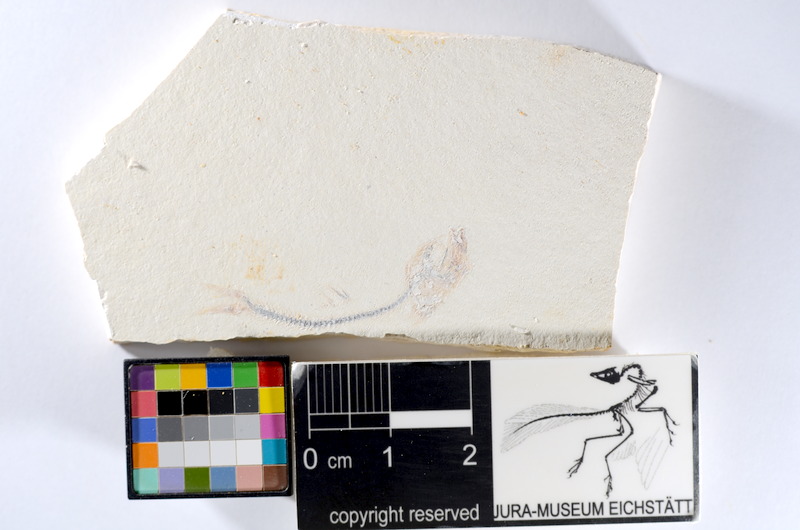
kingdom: Animalia
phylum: Chordata
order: Salmoniformes
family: Orthogonikleithridae
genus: Orthogonikleithrus
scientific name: Orthogonikleithrus hoelli
